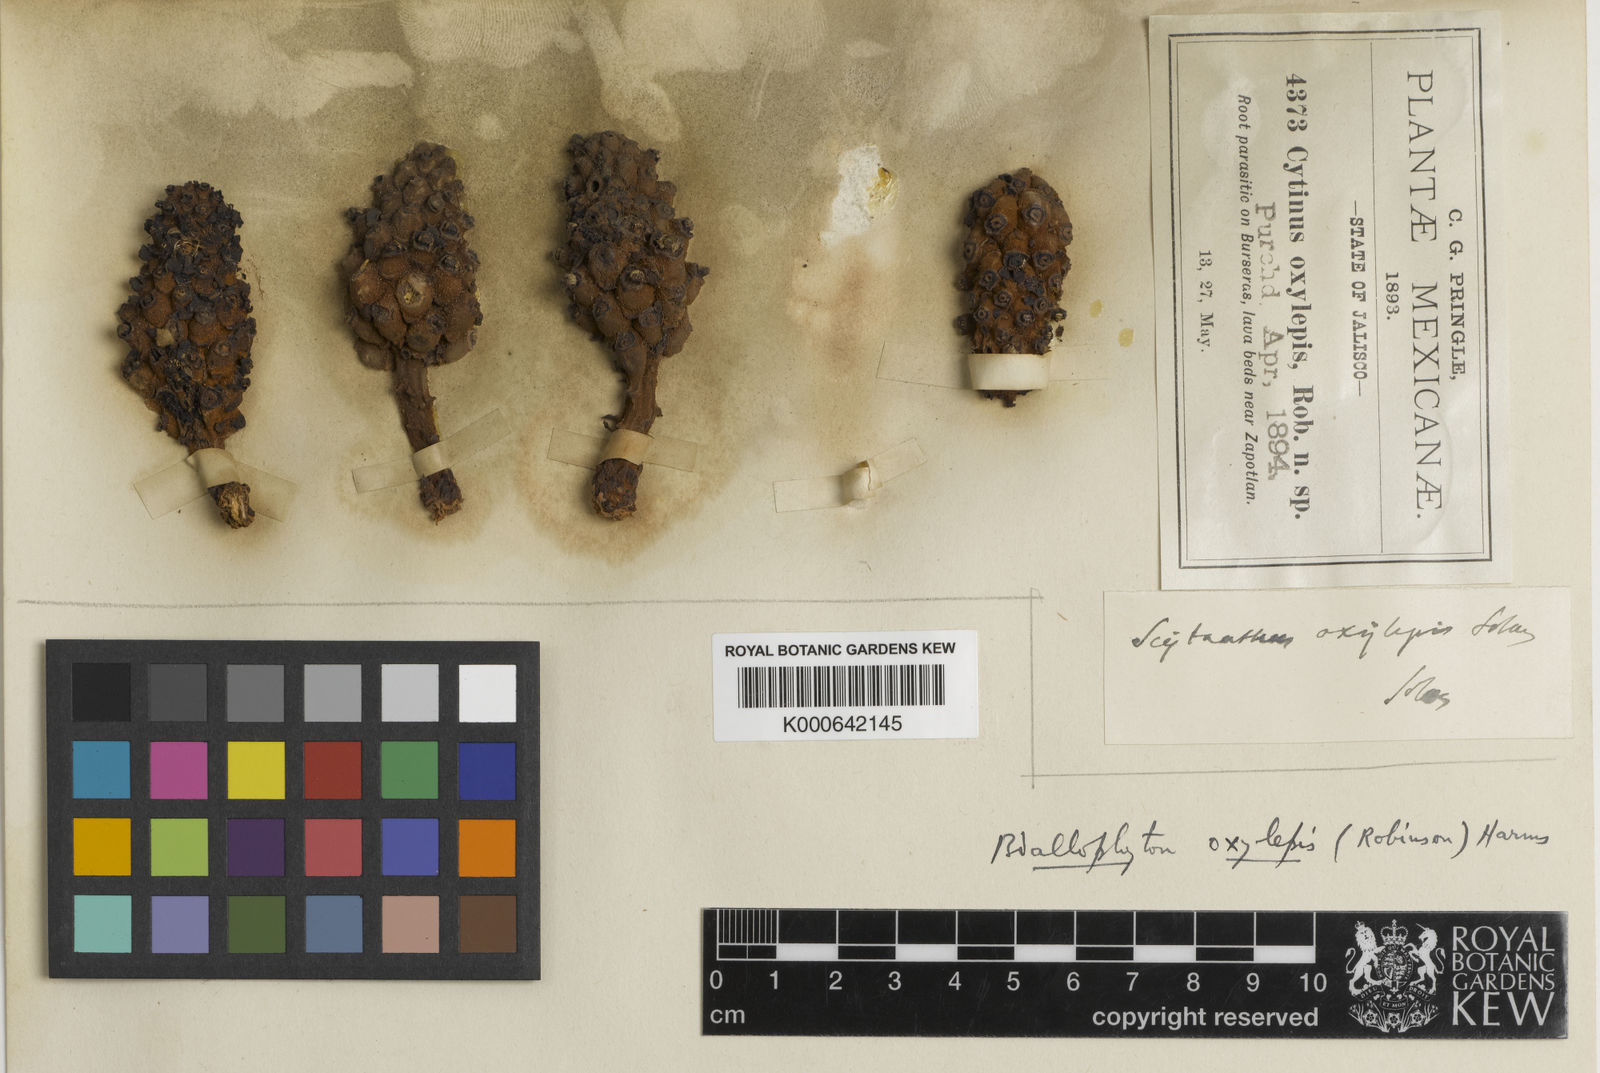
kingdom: Plantae
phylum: Tracheophyta
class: Magnoliopsida
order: Malvales
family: Cytinaceae
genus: Bdallophyton
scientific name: Bdallophyton oxylepis
